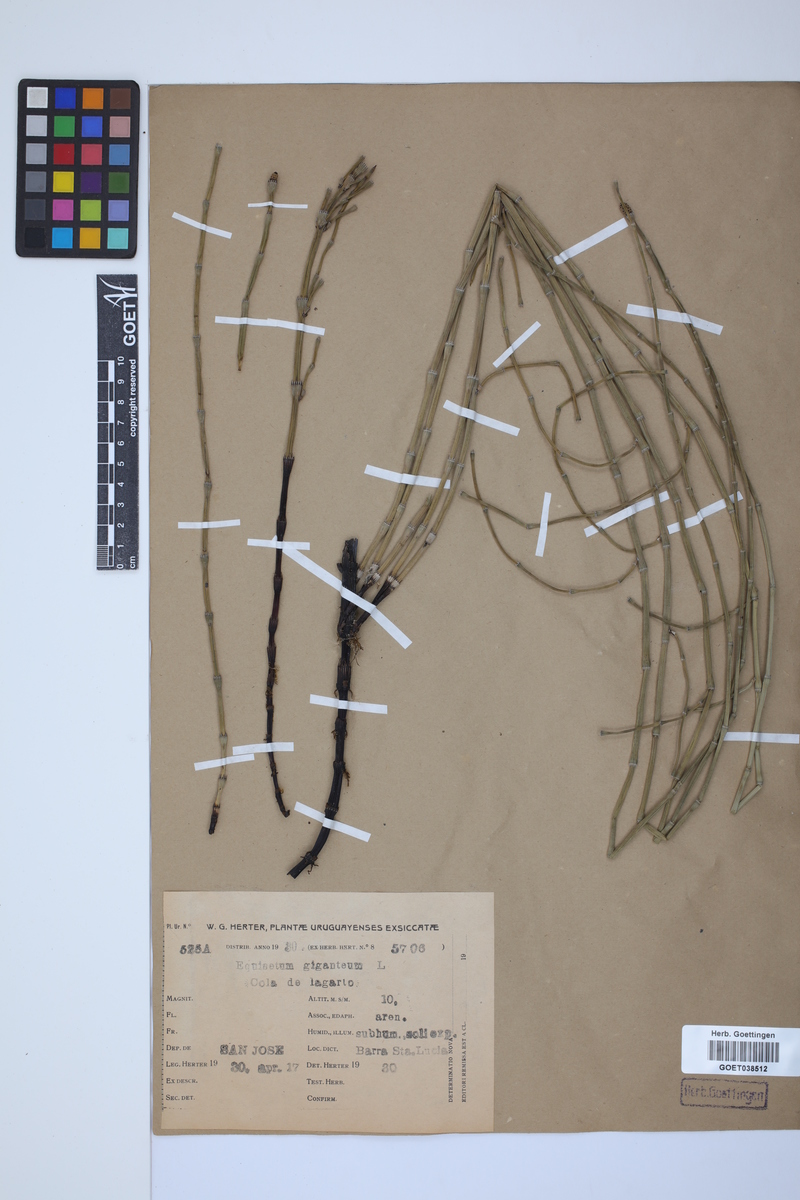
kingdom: Plantae
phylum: Tracheophyta
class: Polypodiopsida
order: Equisetales
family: Equisetaceae
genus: Equisetum
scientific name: Equisetum giganteum
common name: Giant horsetail
